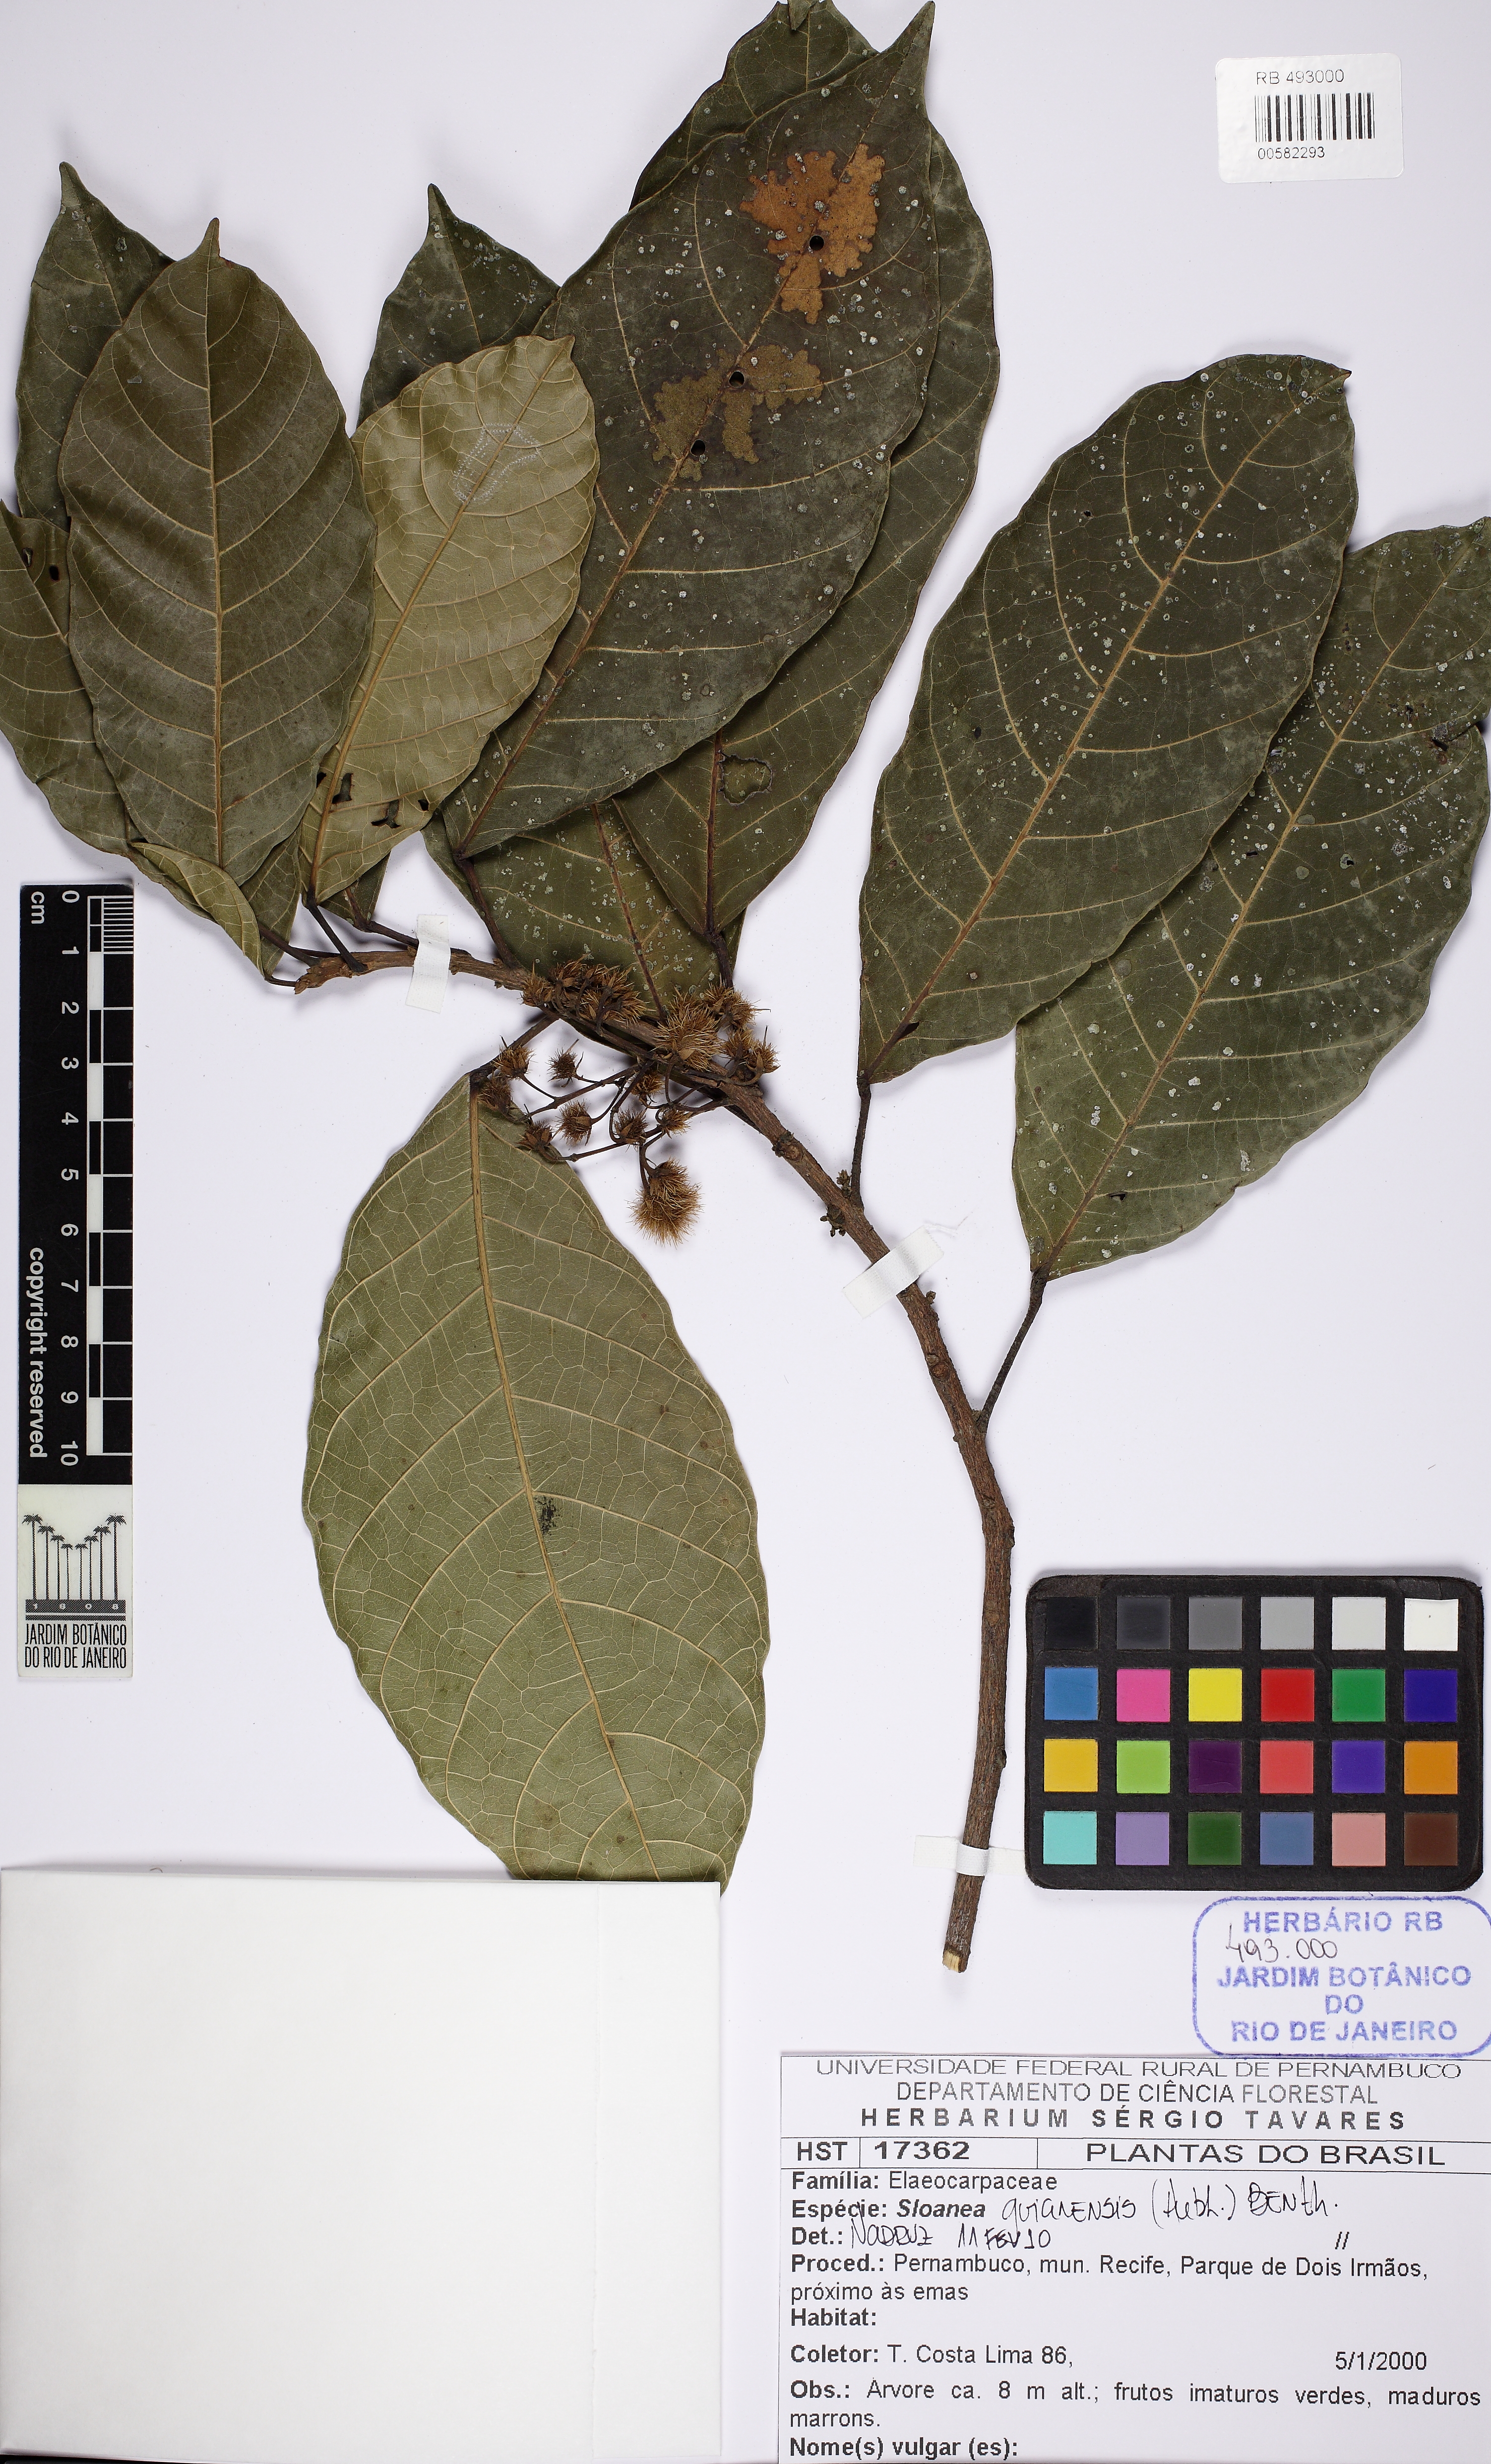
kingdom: Plantae
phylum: Tracheophyta
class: Magnoliopsida
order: Oxalidales
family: Elaeocarpaceae
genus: Sloanea
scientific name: Sloanea guianensis
